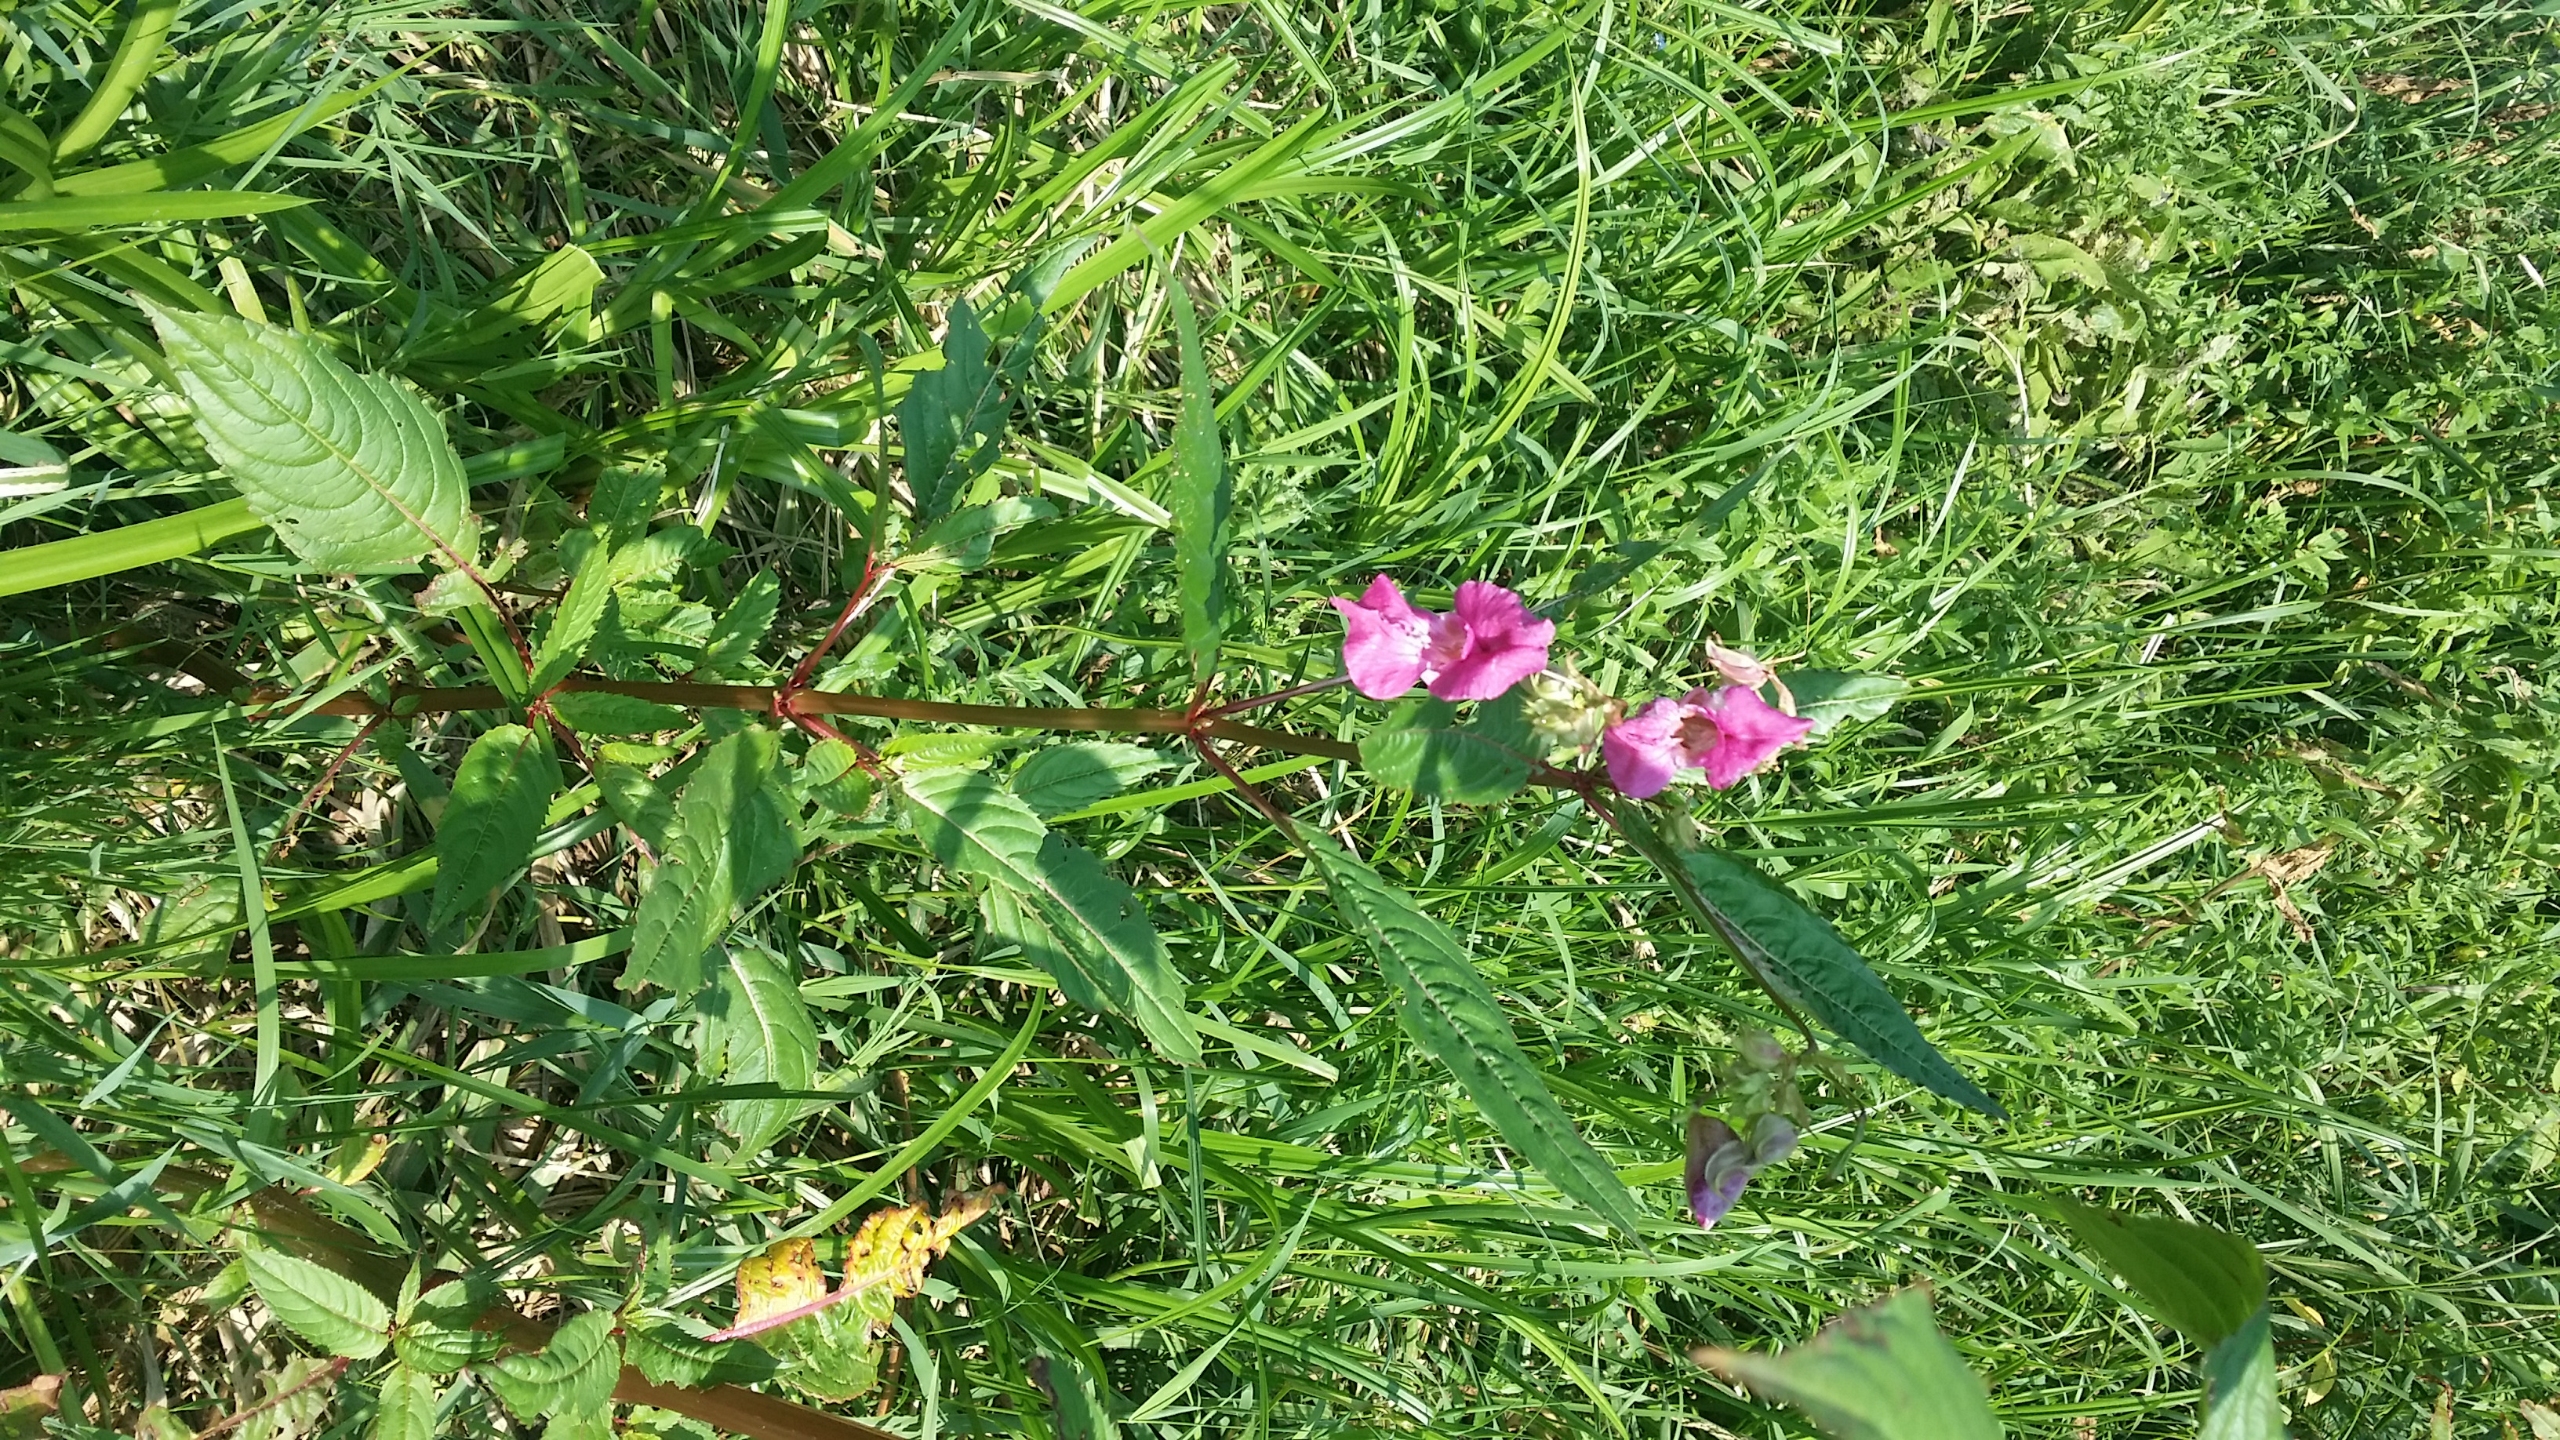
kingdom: Plantae
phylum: Tracheophyta
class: Magnoliopsida
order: Ericales
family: Balsaminaceae
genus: Impatiens
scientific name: Impatiens glandulifera
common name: Kæmpe-balsamin
